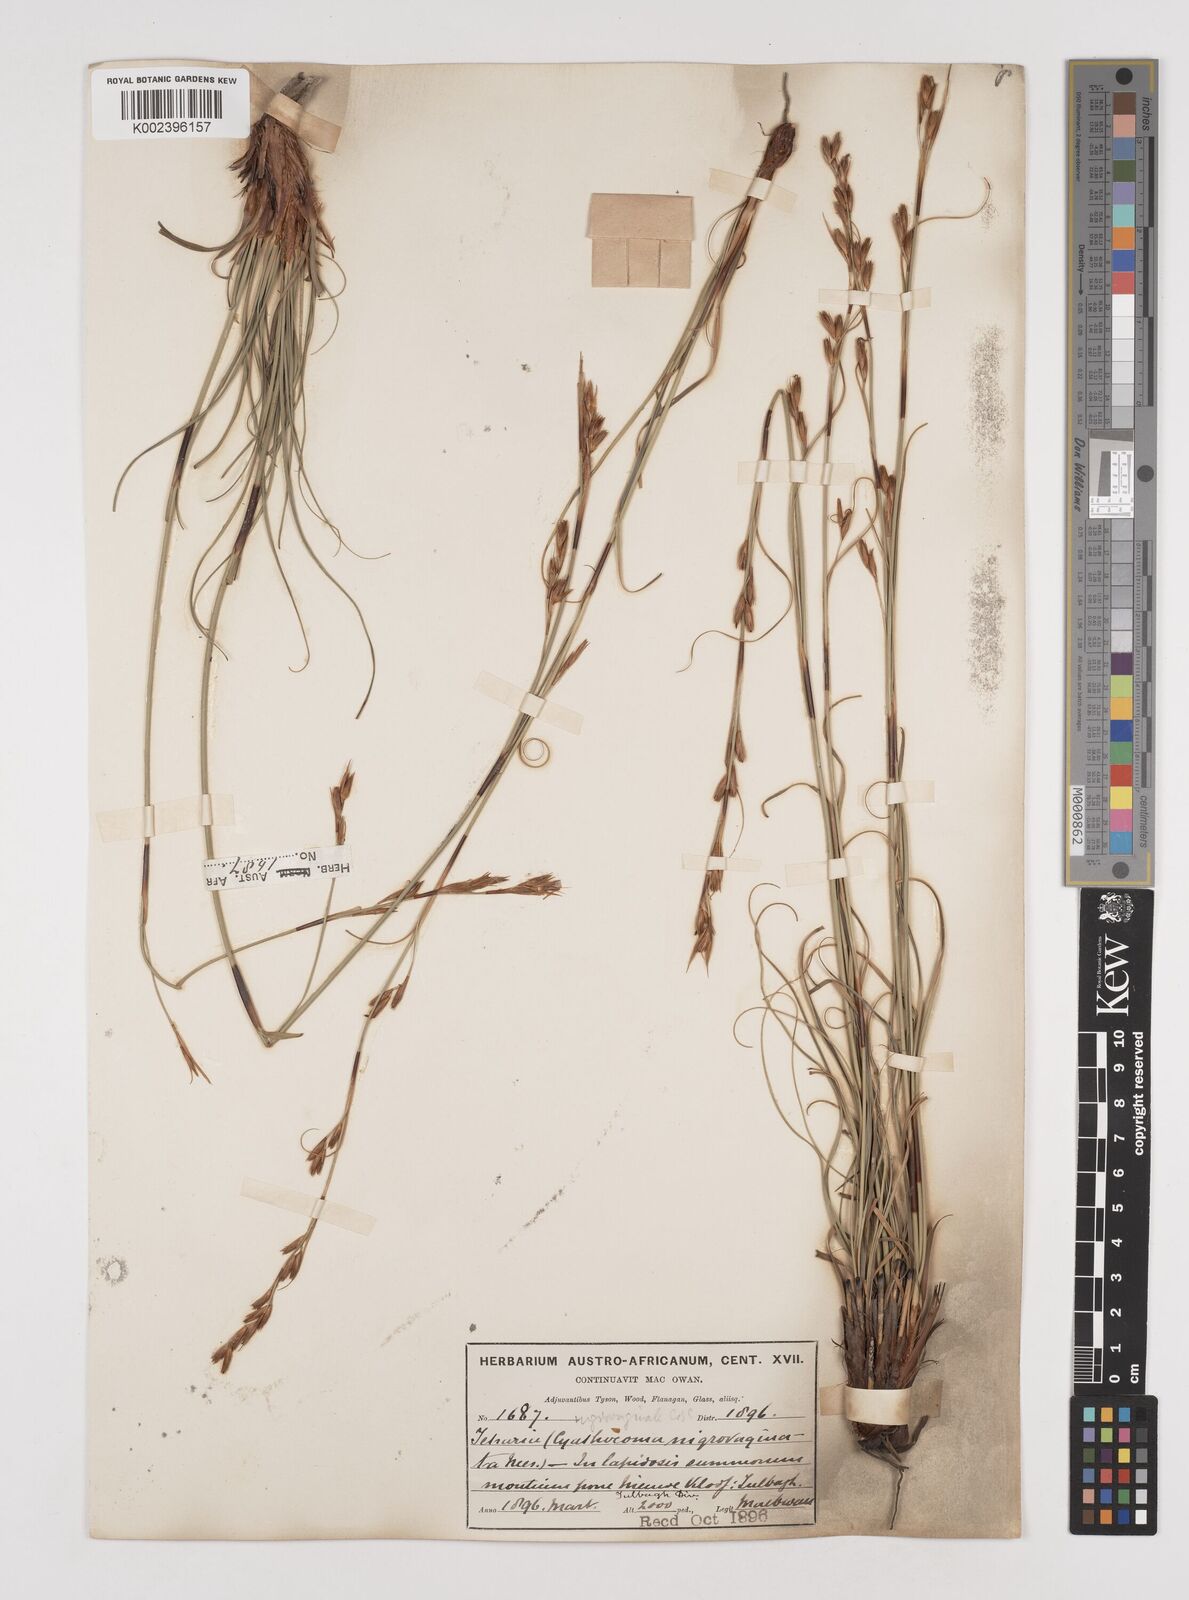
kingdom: Plantae
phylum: Tracheophyta
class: Liliopsida
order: Poales
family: Cyperaceae
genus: Tetraria
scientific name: Tetraria nigrovaginata
